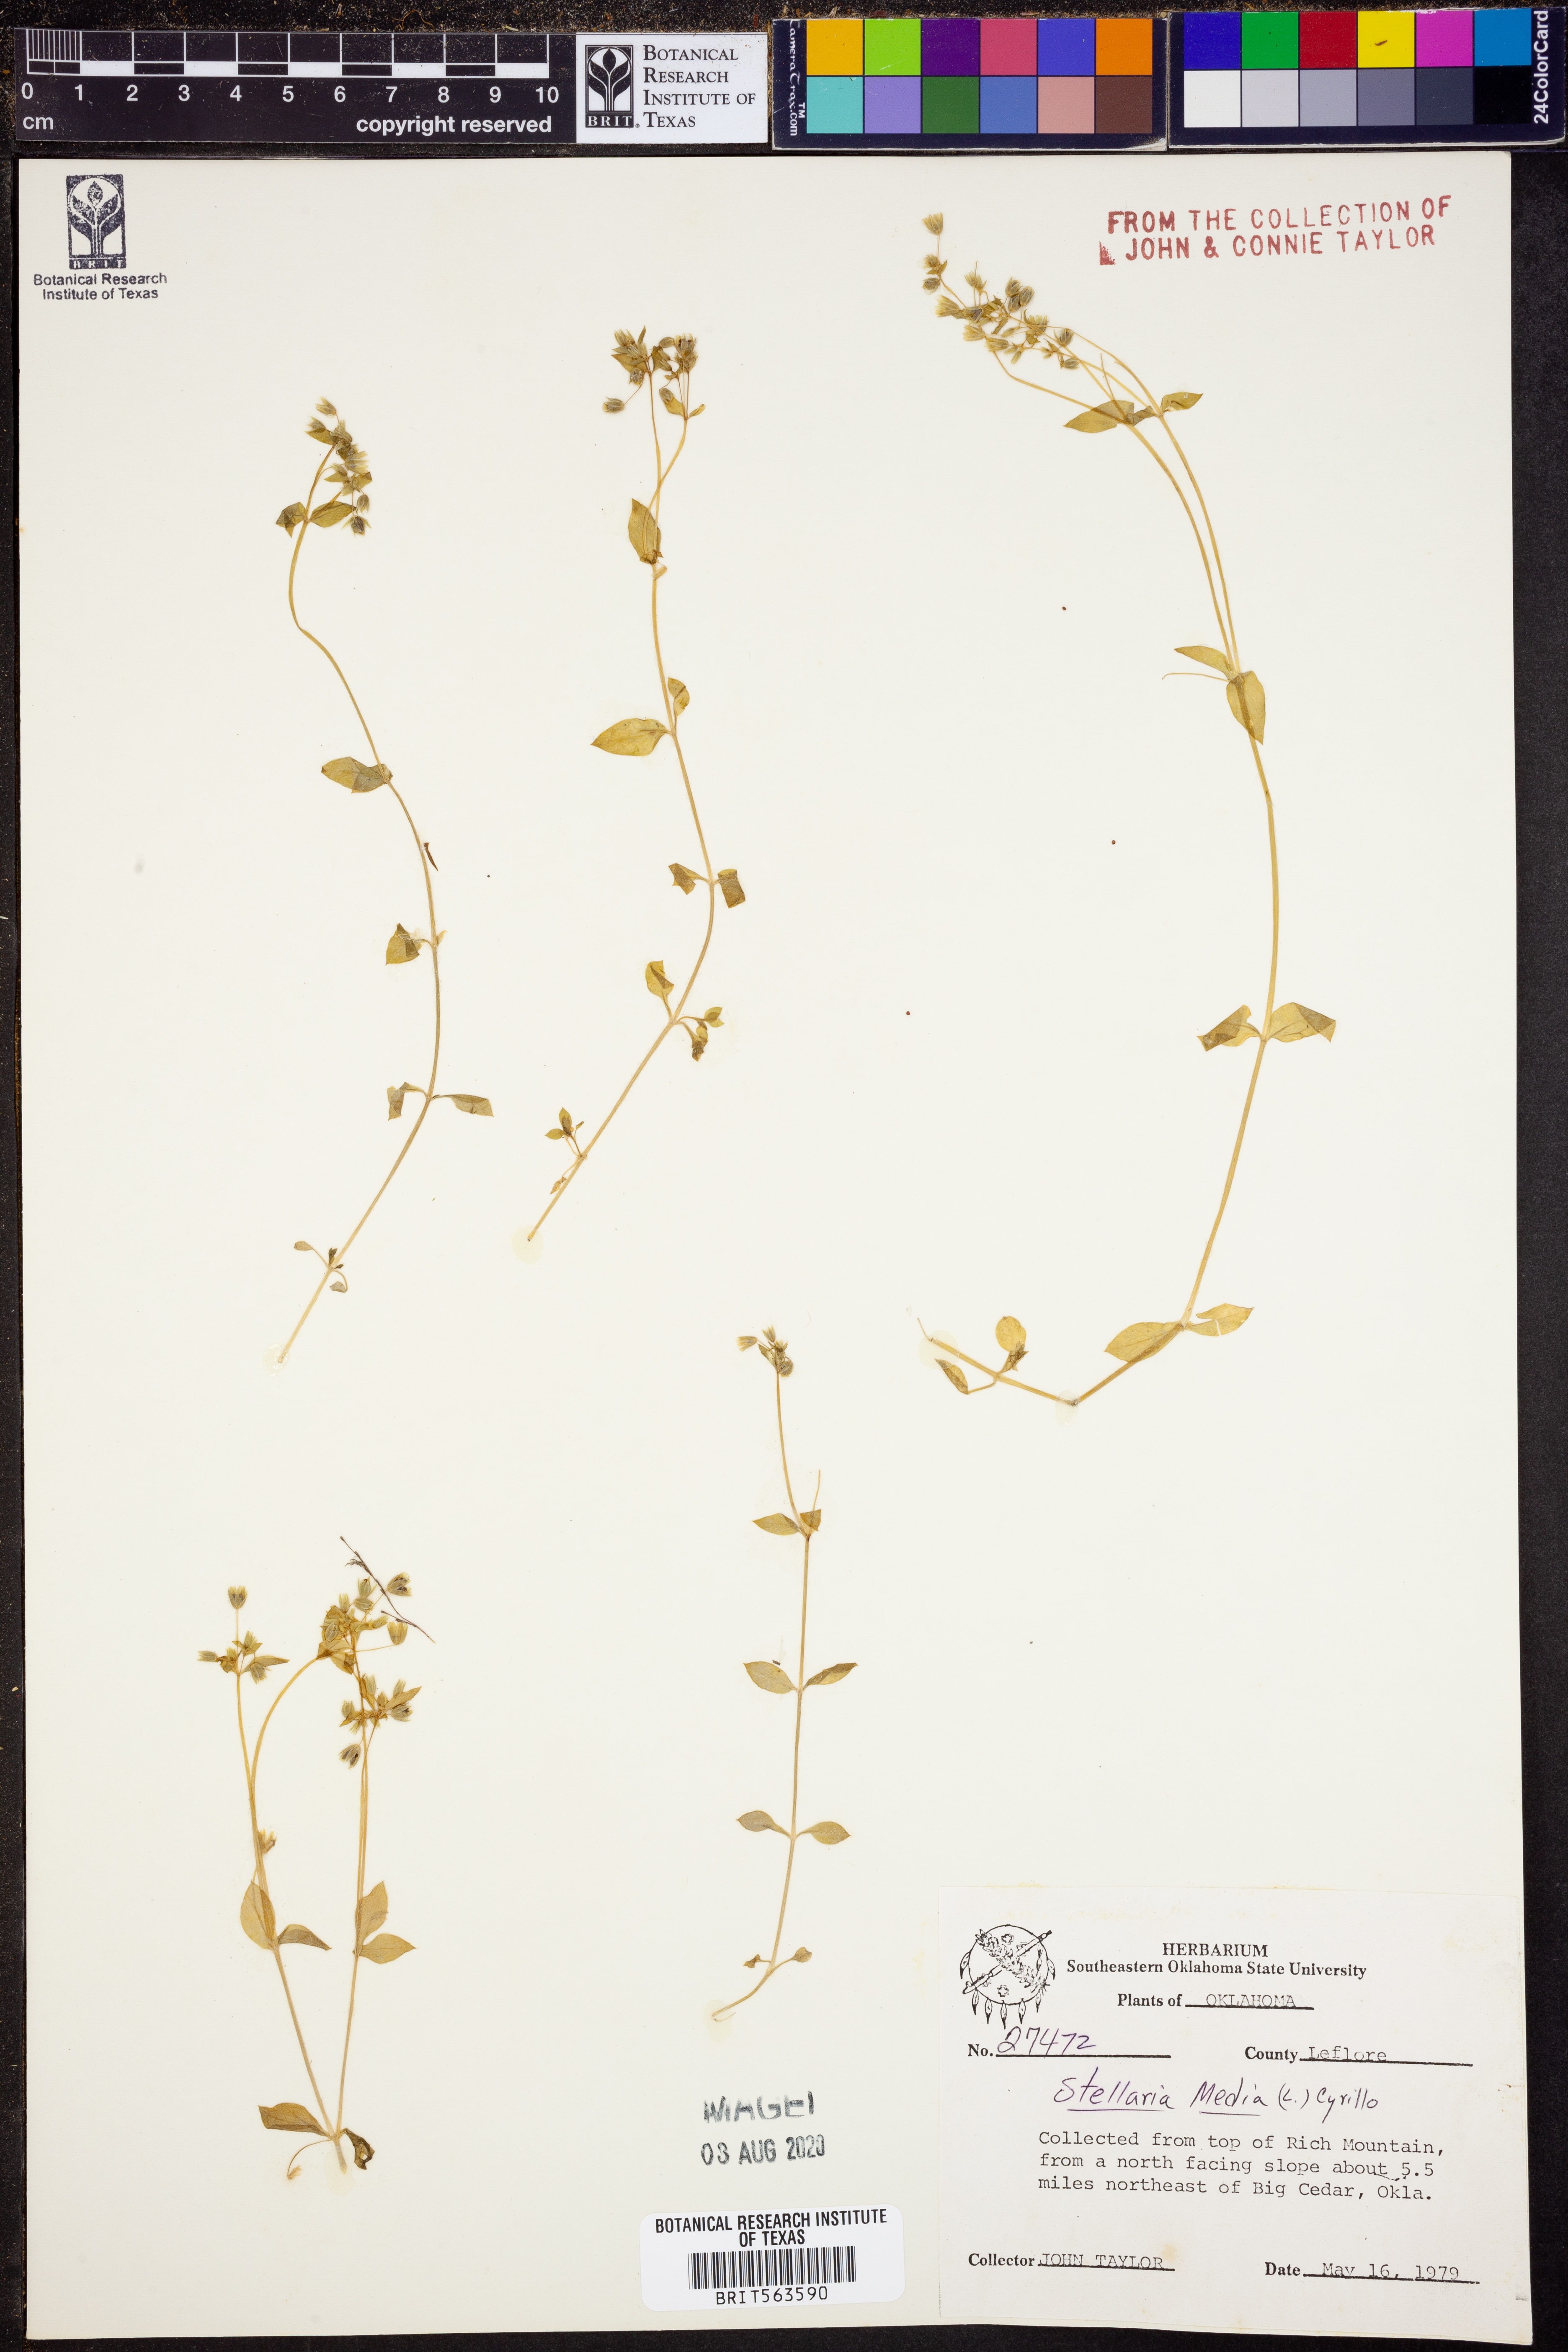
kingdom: Plantae
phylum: Tracheophyta
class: Magnoliopsida
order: Caryophyllales
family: Caryophyllaceae
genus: Stellaria
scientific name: Stellaria media
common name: Common chickweed
